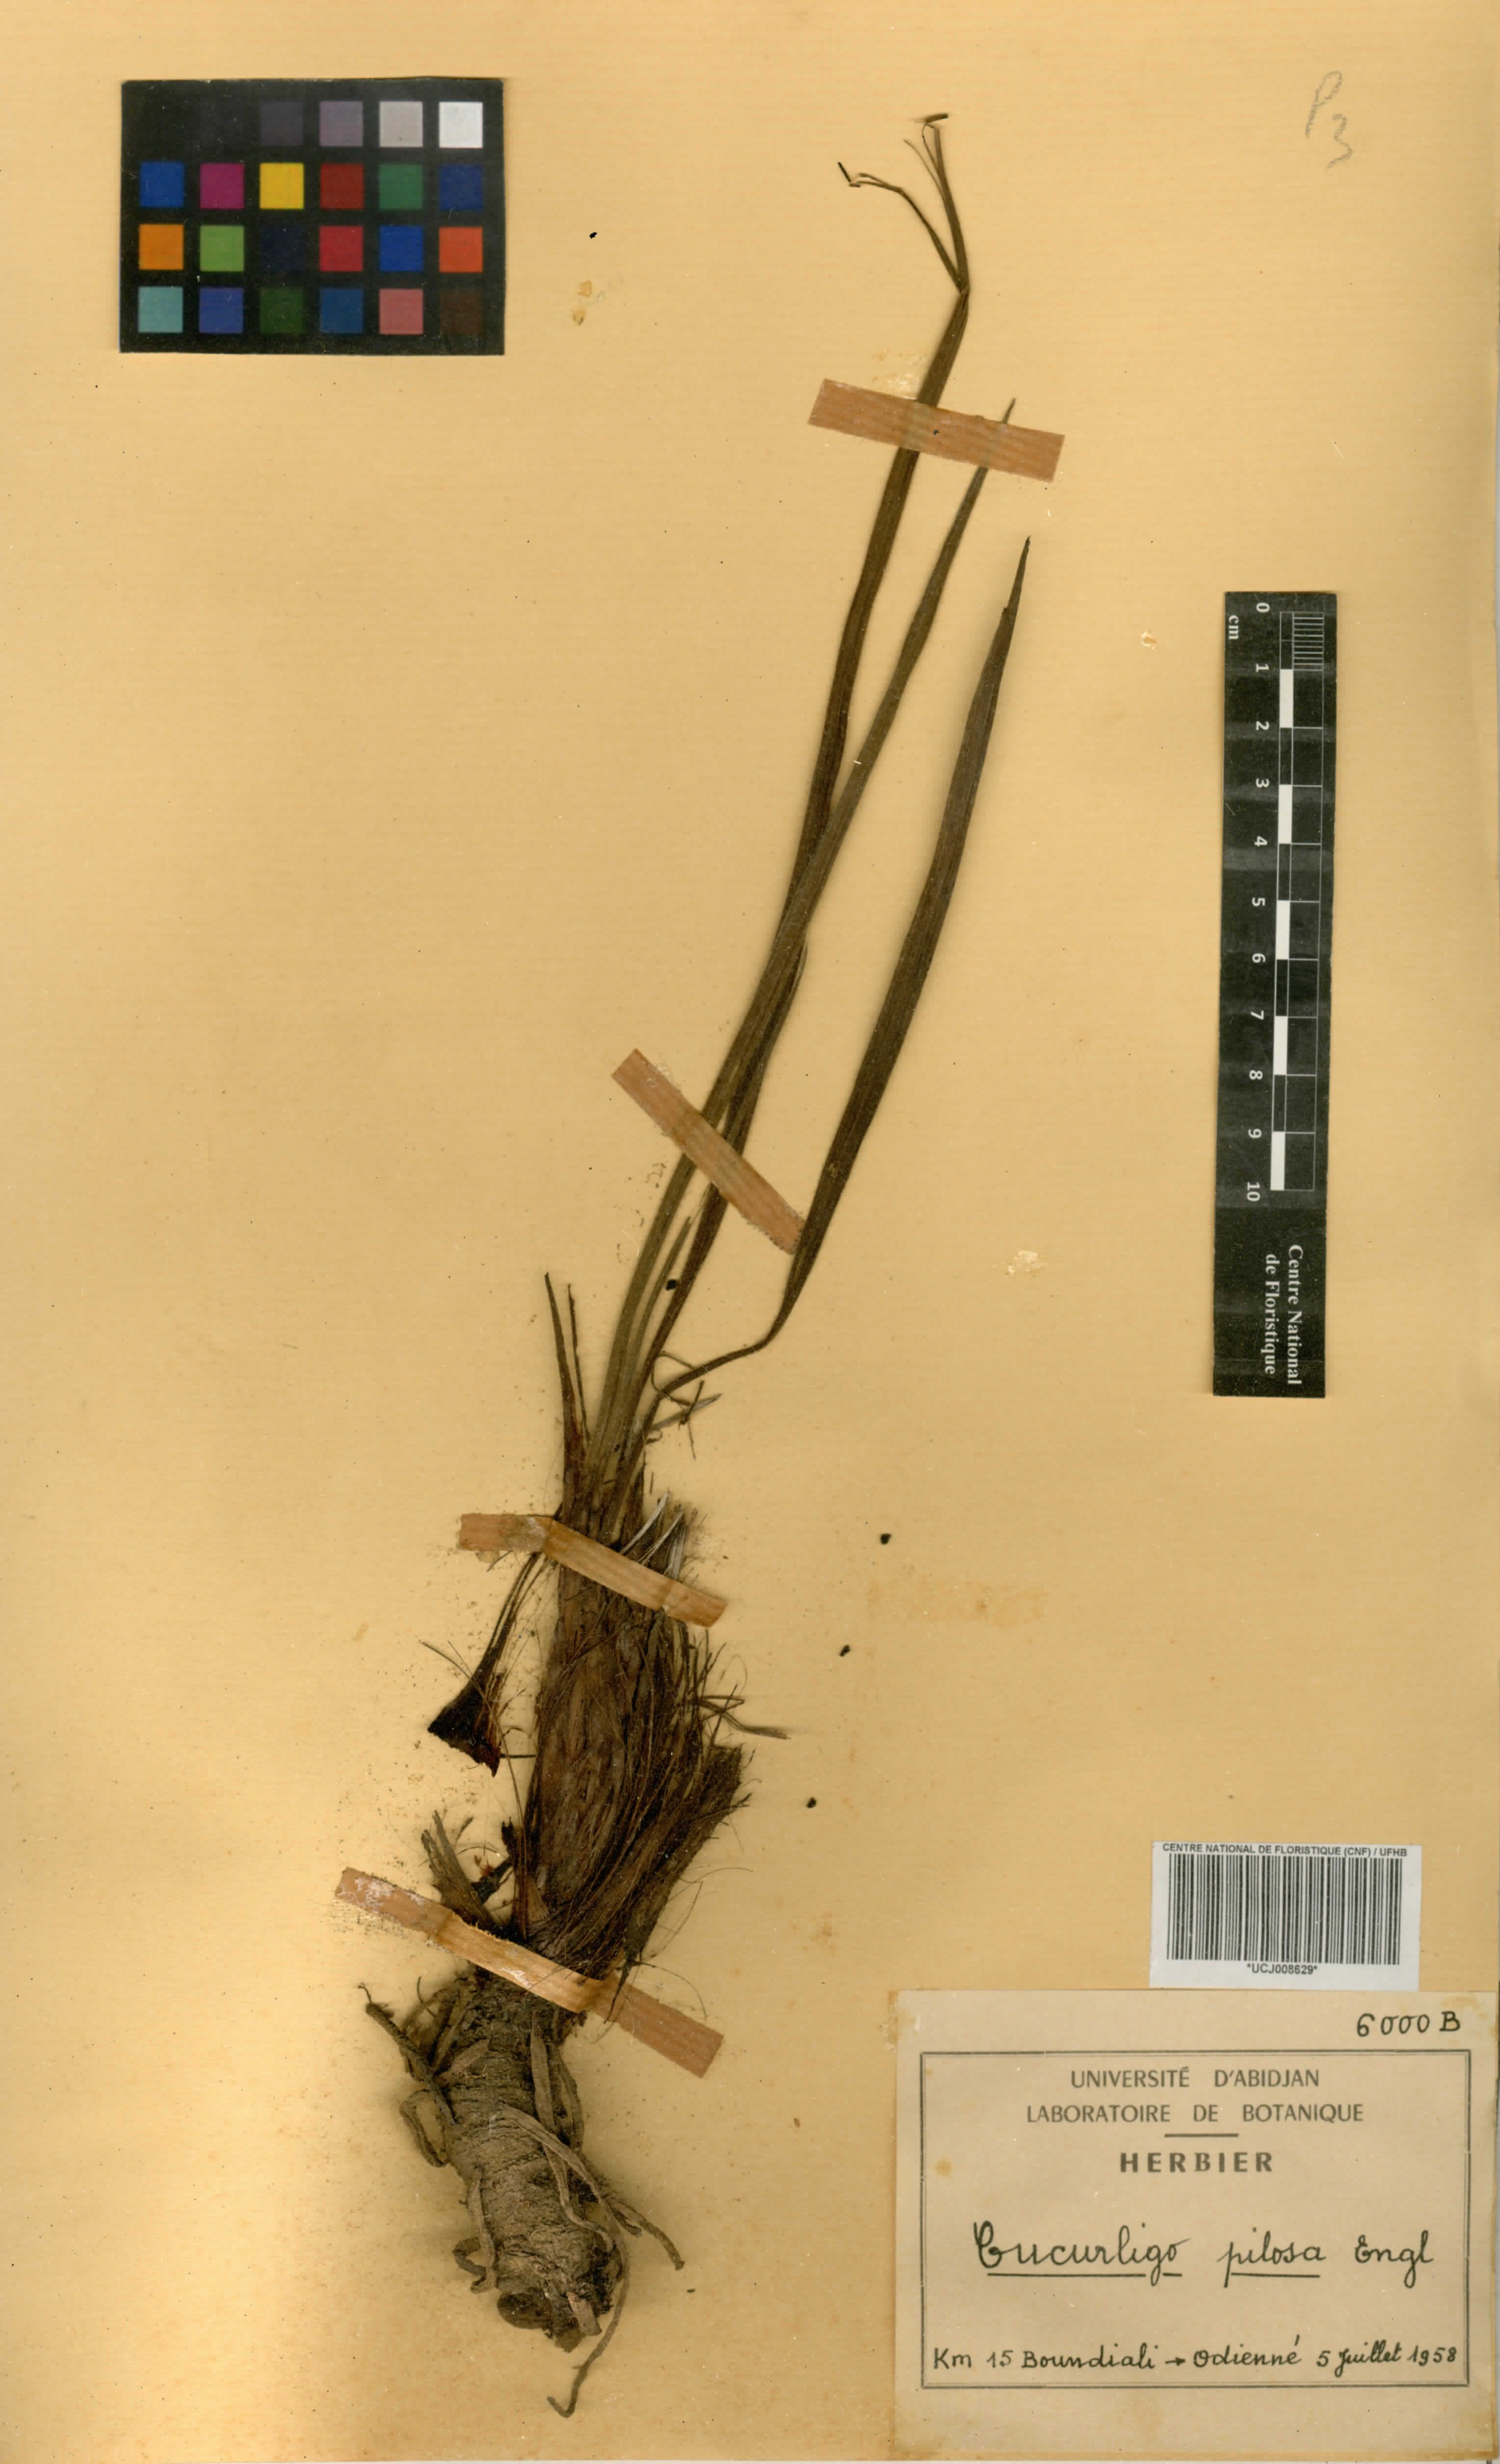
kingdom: Plantae
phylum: Tracheophyta
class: Liliopsida
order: Asparagales
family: Hypoxidaceae
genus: Curculigo
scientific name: Curculigo pilosa
